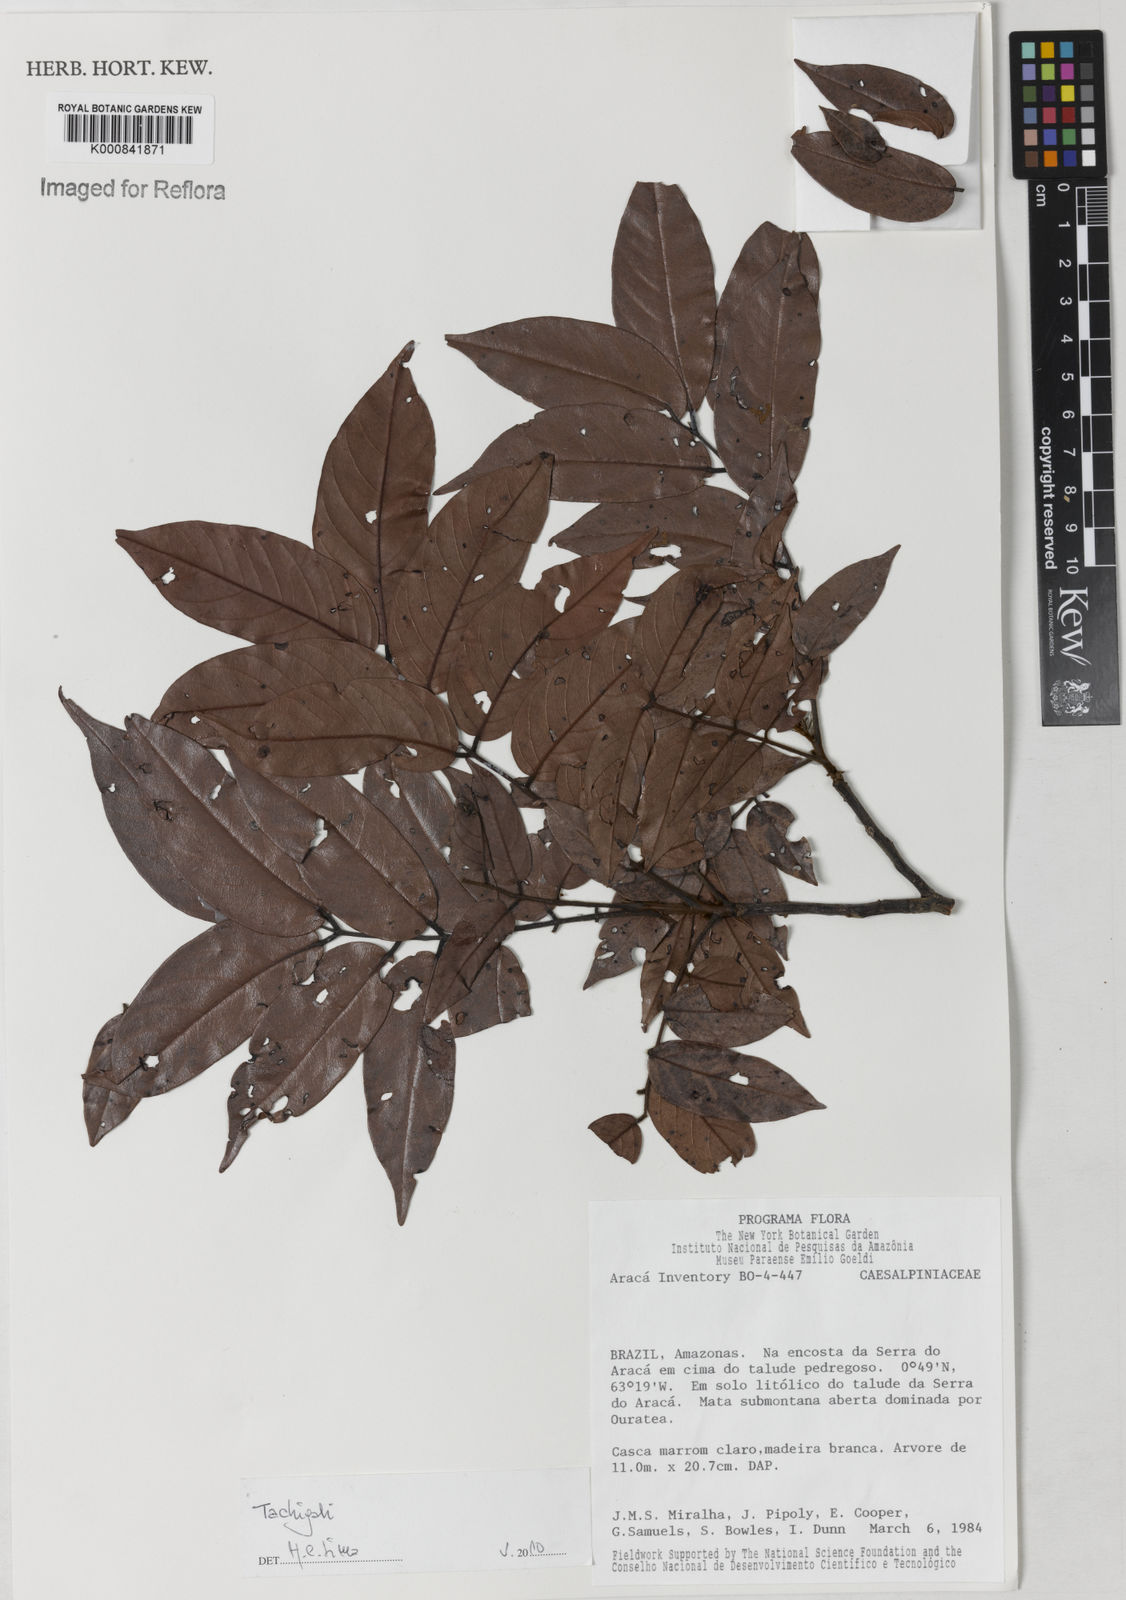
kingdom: Plantae
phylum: Tracheophyta
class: Magnoliopsida
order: Fabales
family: Fabaceae
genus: Tachigali
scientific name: Tachigali
